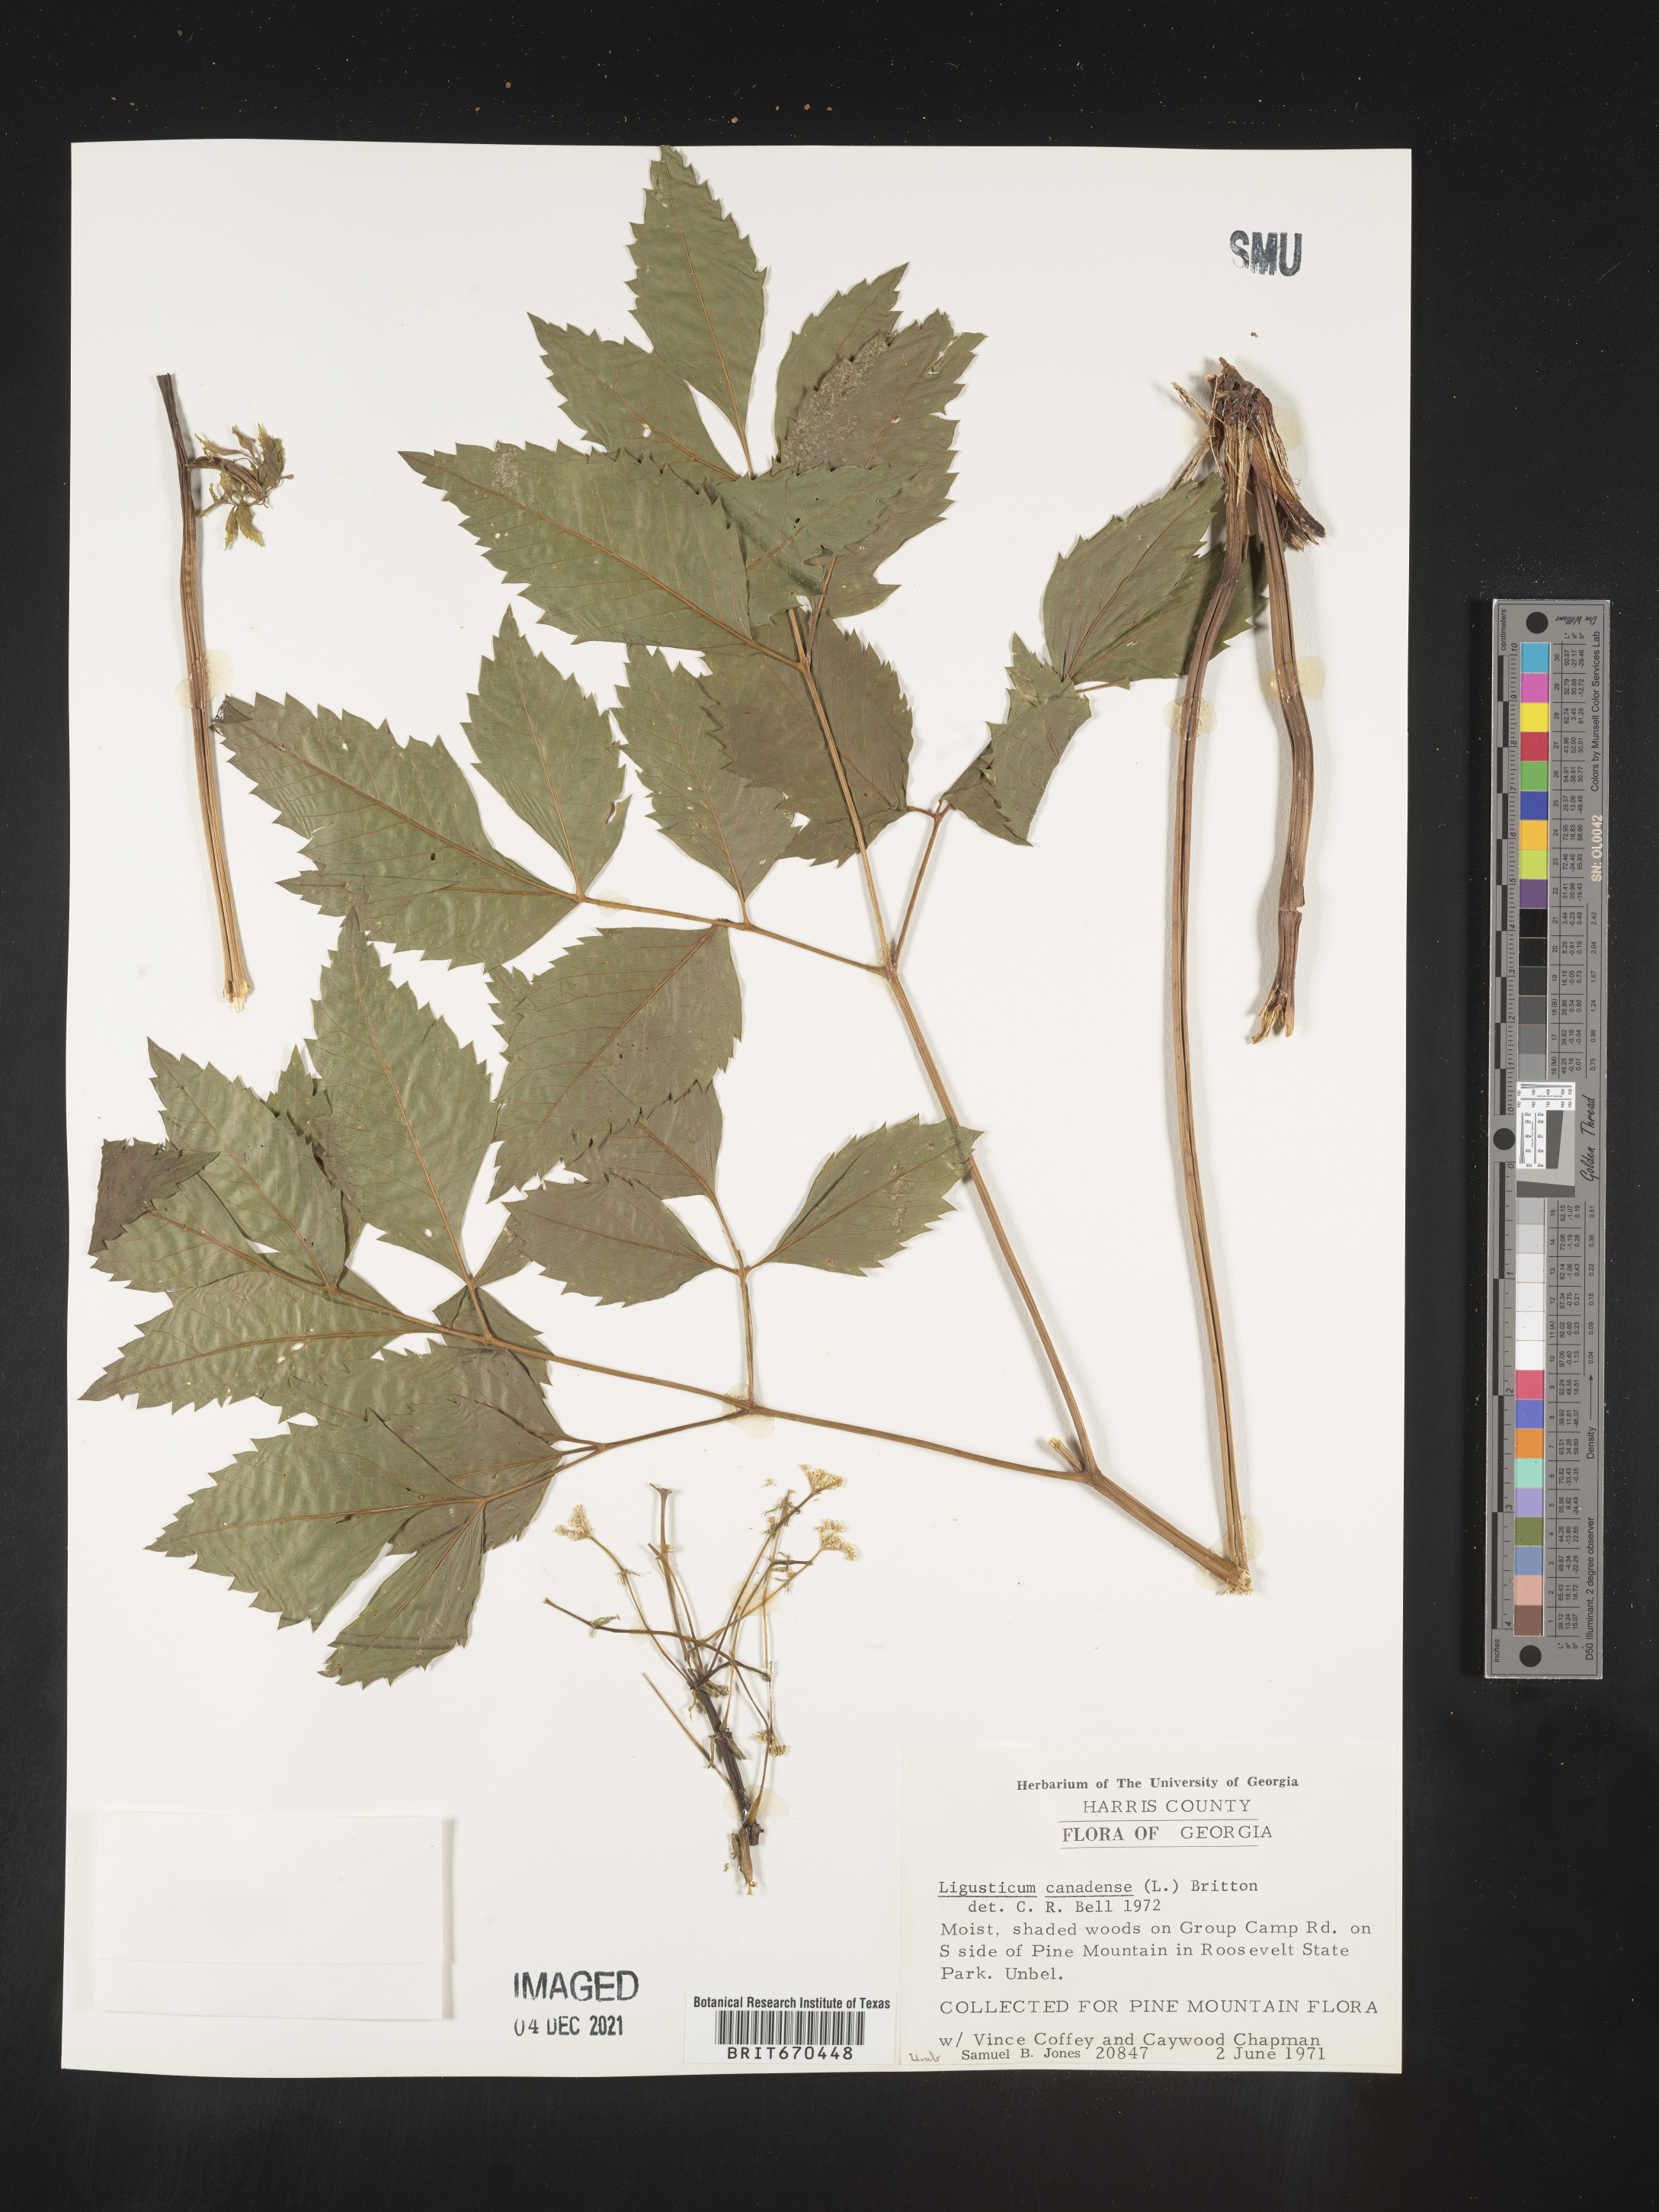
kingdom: Plantae
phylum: Tracheophyta
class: Magnoliopsida
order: Apiales
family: Apiaceae
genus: Ligusticum
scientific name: Ligusticum
